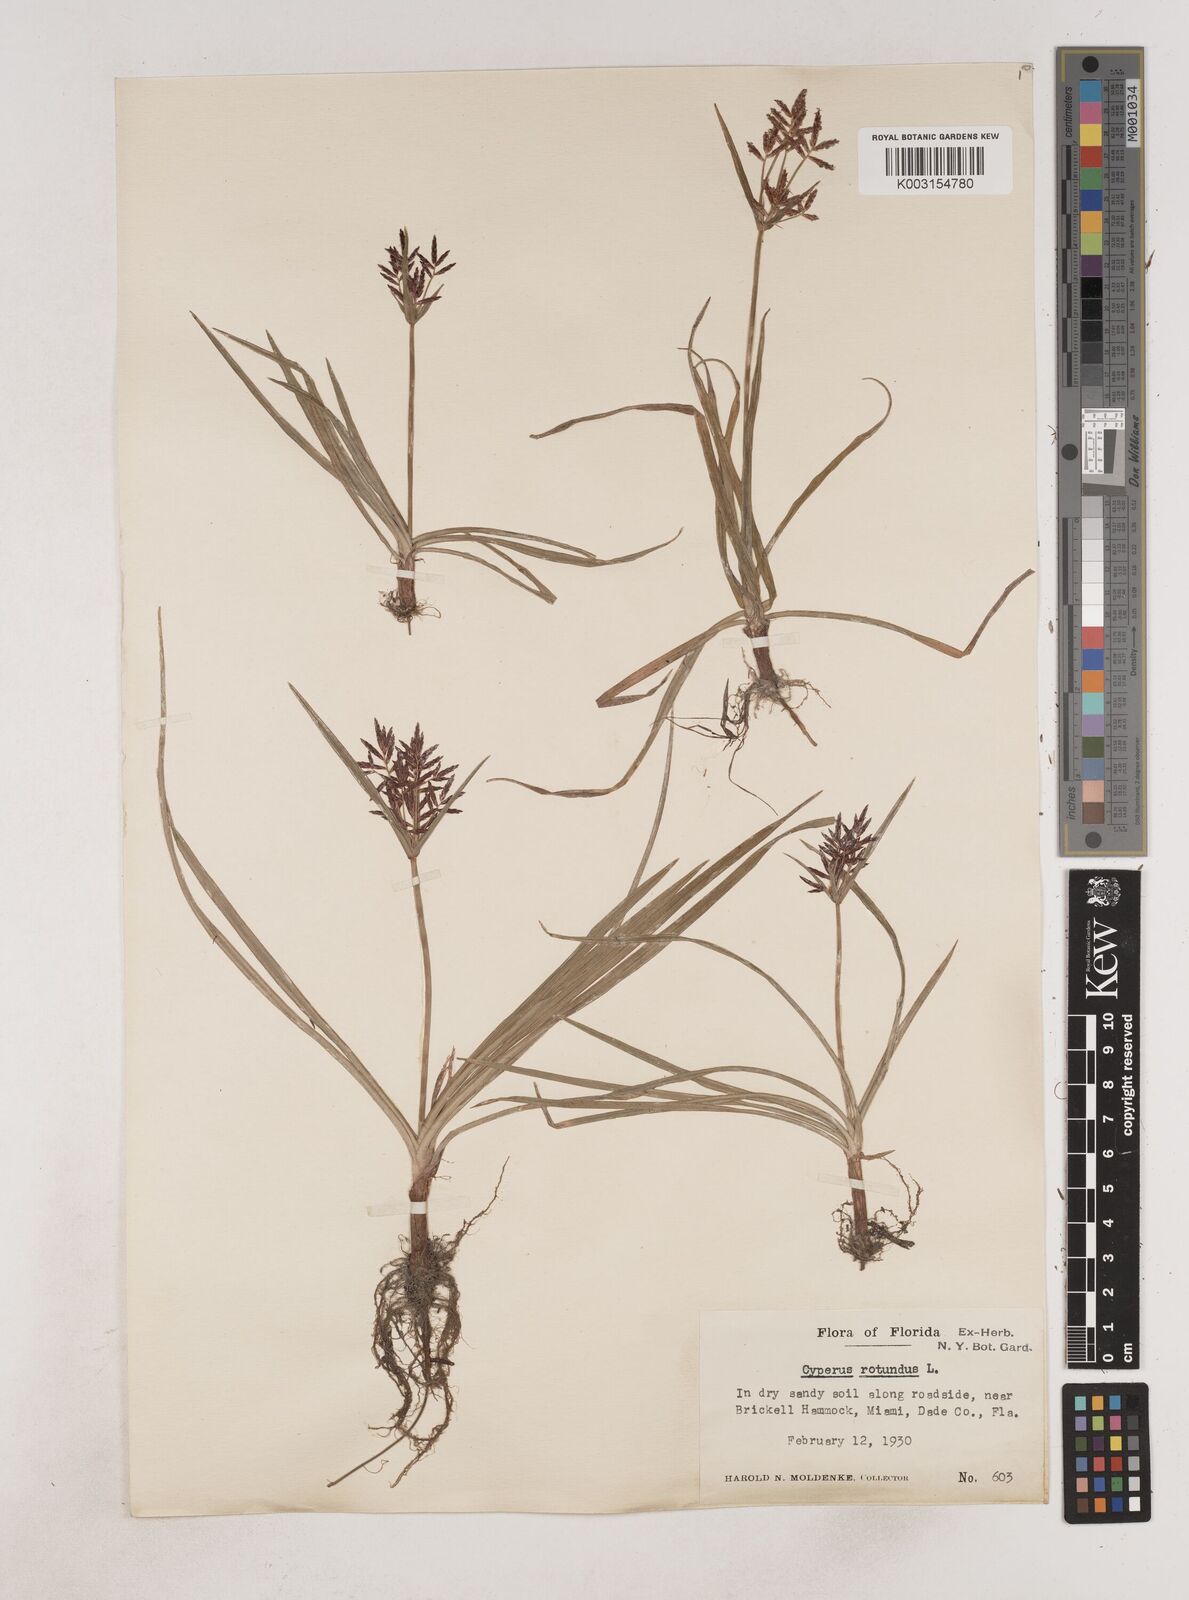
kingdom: Plantae
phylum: Tracheophyta
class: Liliopsida
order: Poales
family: Cyperaceae
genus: Cyperus
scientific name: Cyperus rotundus
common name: Nutgrass
